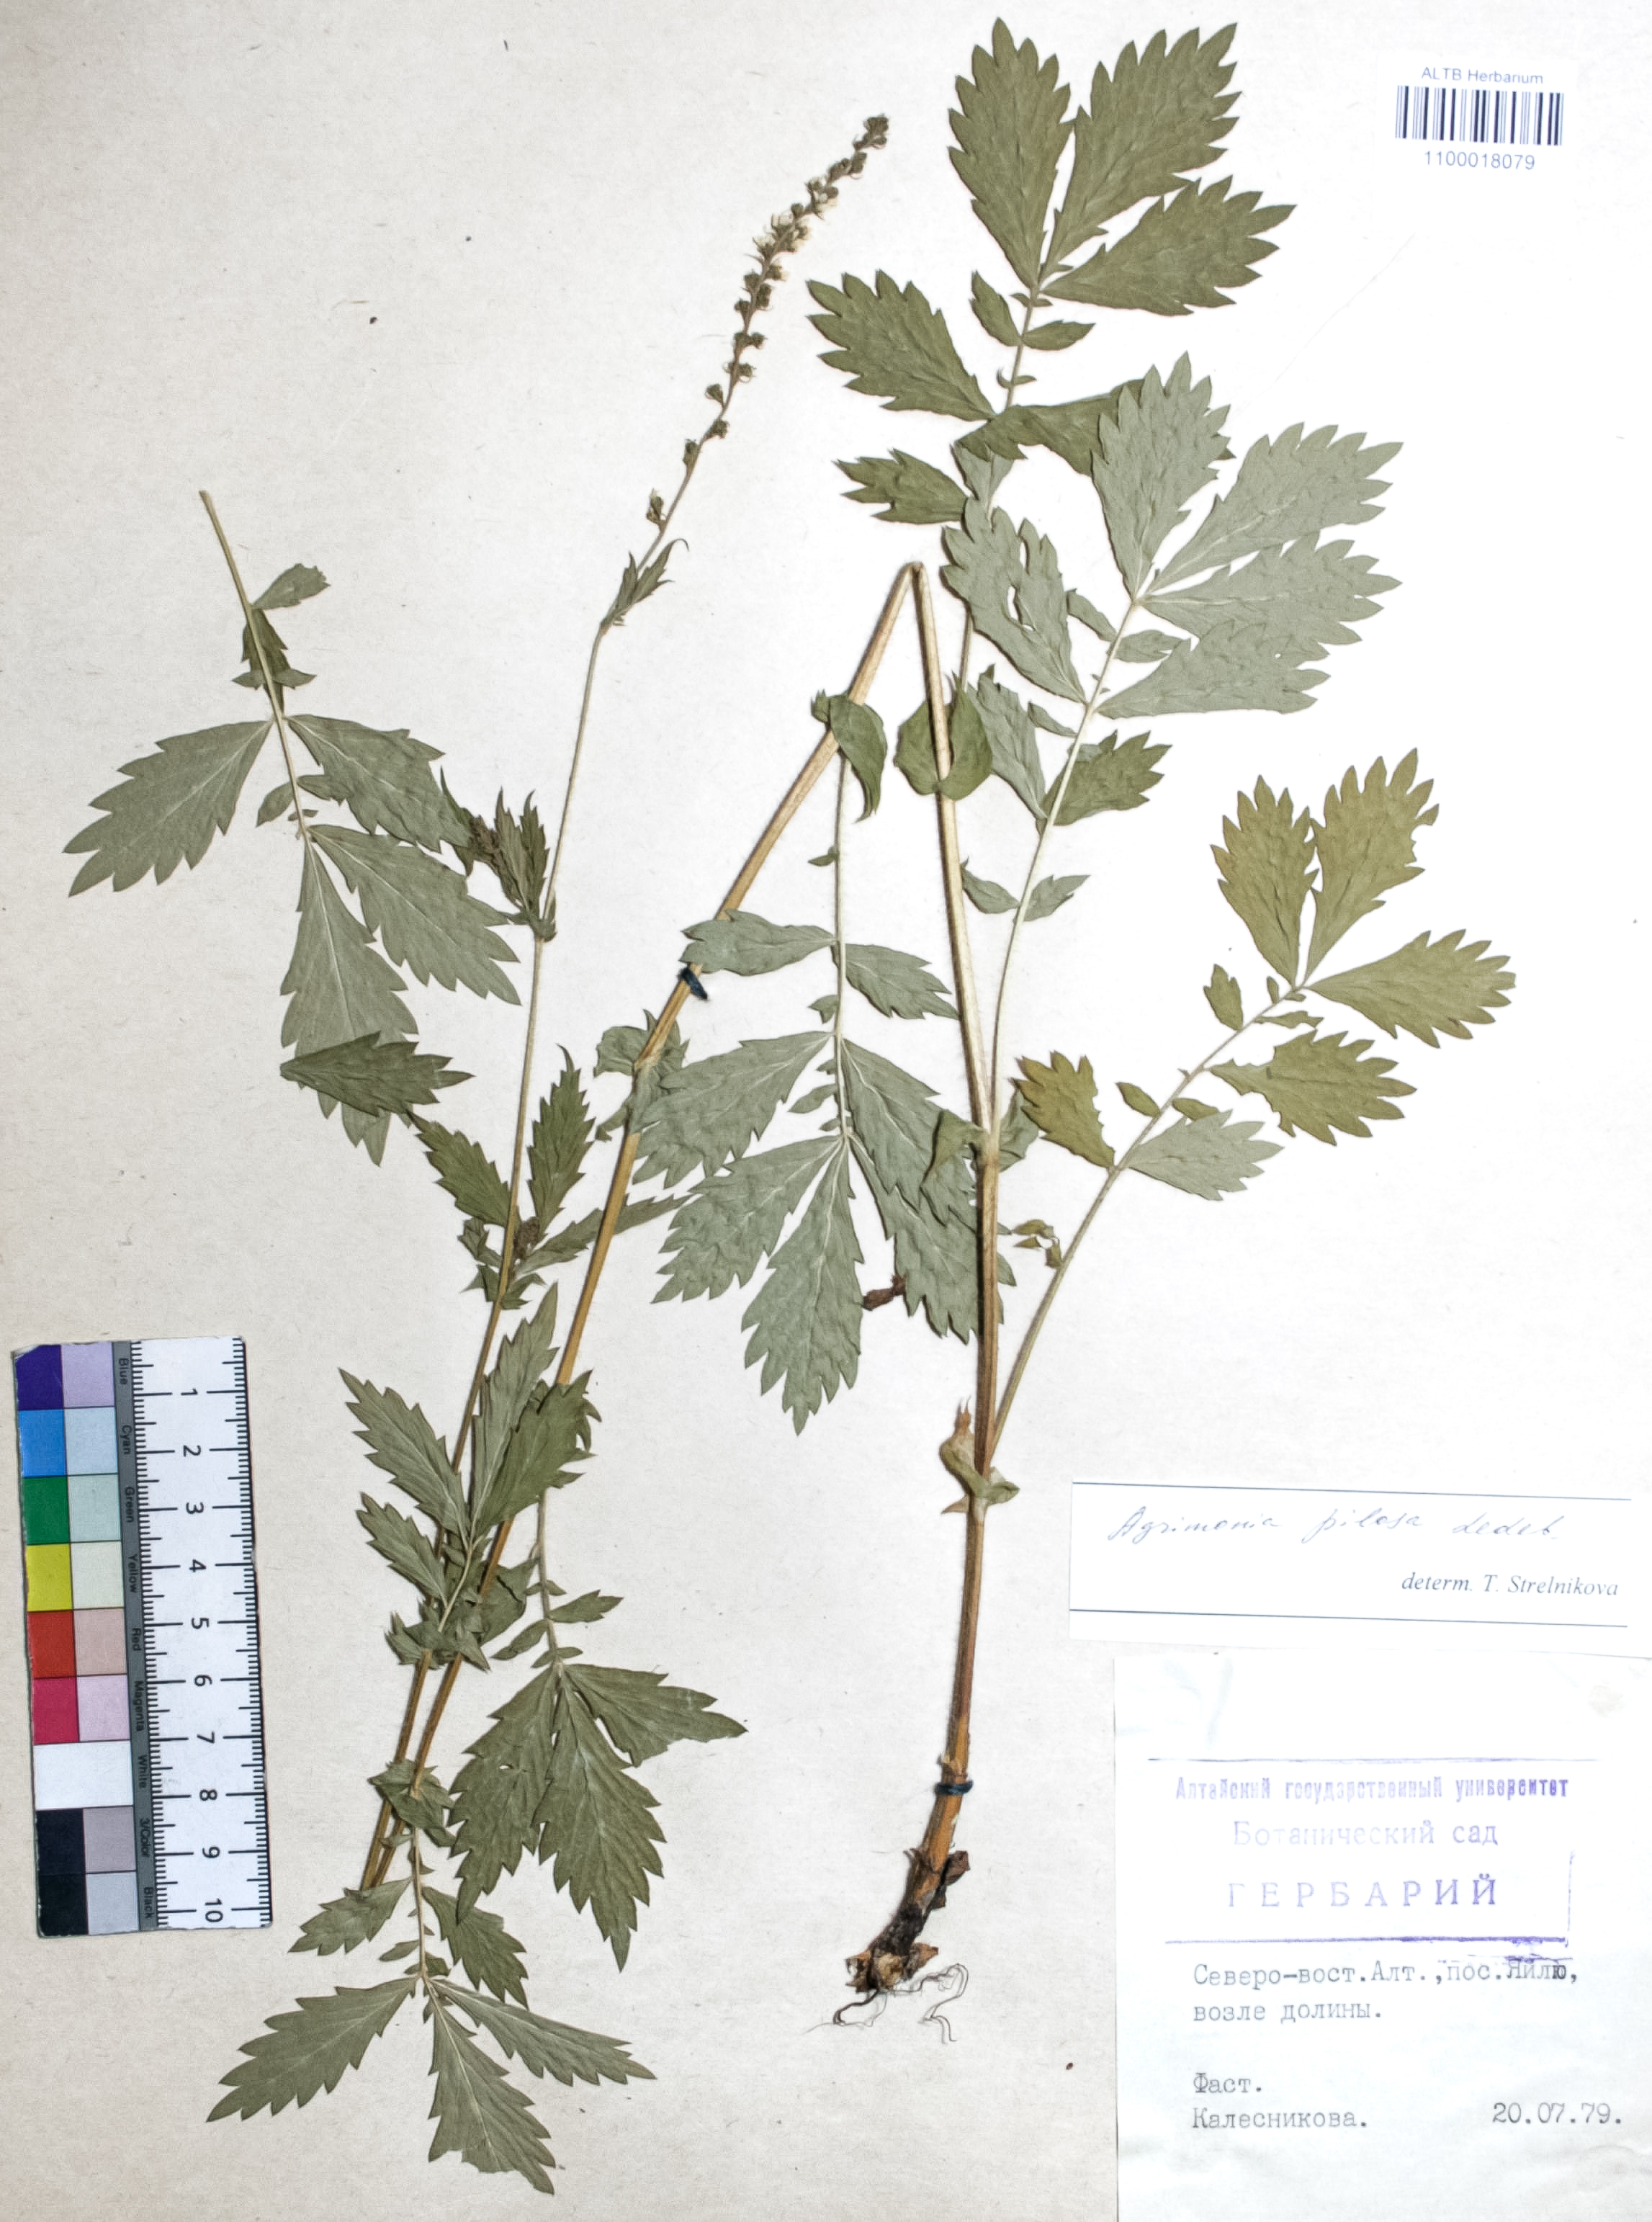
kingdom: Plantae
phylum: Tracheophyta
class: Magnoliopsida
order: Rosales
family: Rosaceae
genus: Agrimonia
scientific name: Agrimonia pilosa
